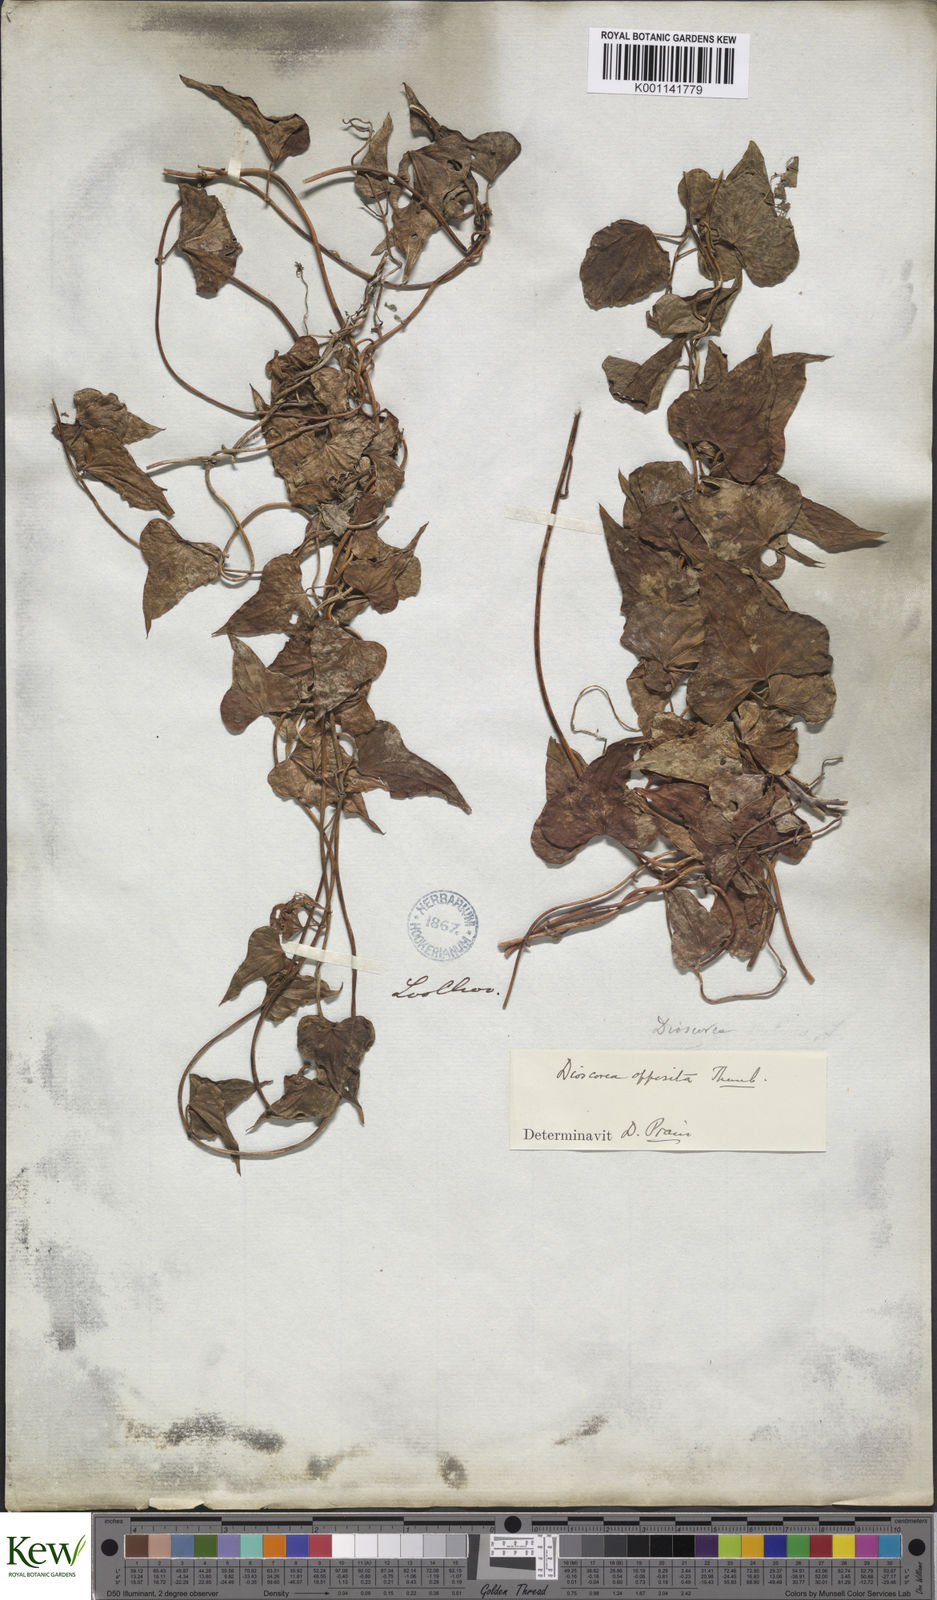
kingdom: Plantae
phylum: Tracheophyta
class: Liliopsida
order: Dioscoreales
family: Dioscoreaceae
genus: Dioscorea
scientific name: Dioscorea oppositifolia
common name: Chinese yam
